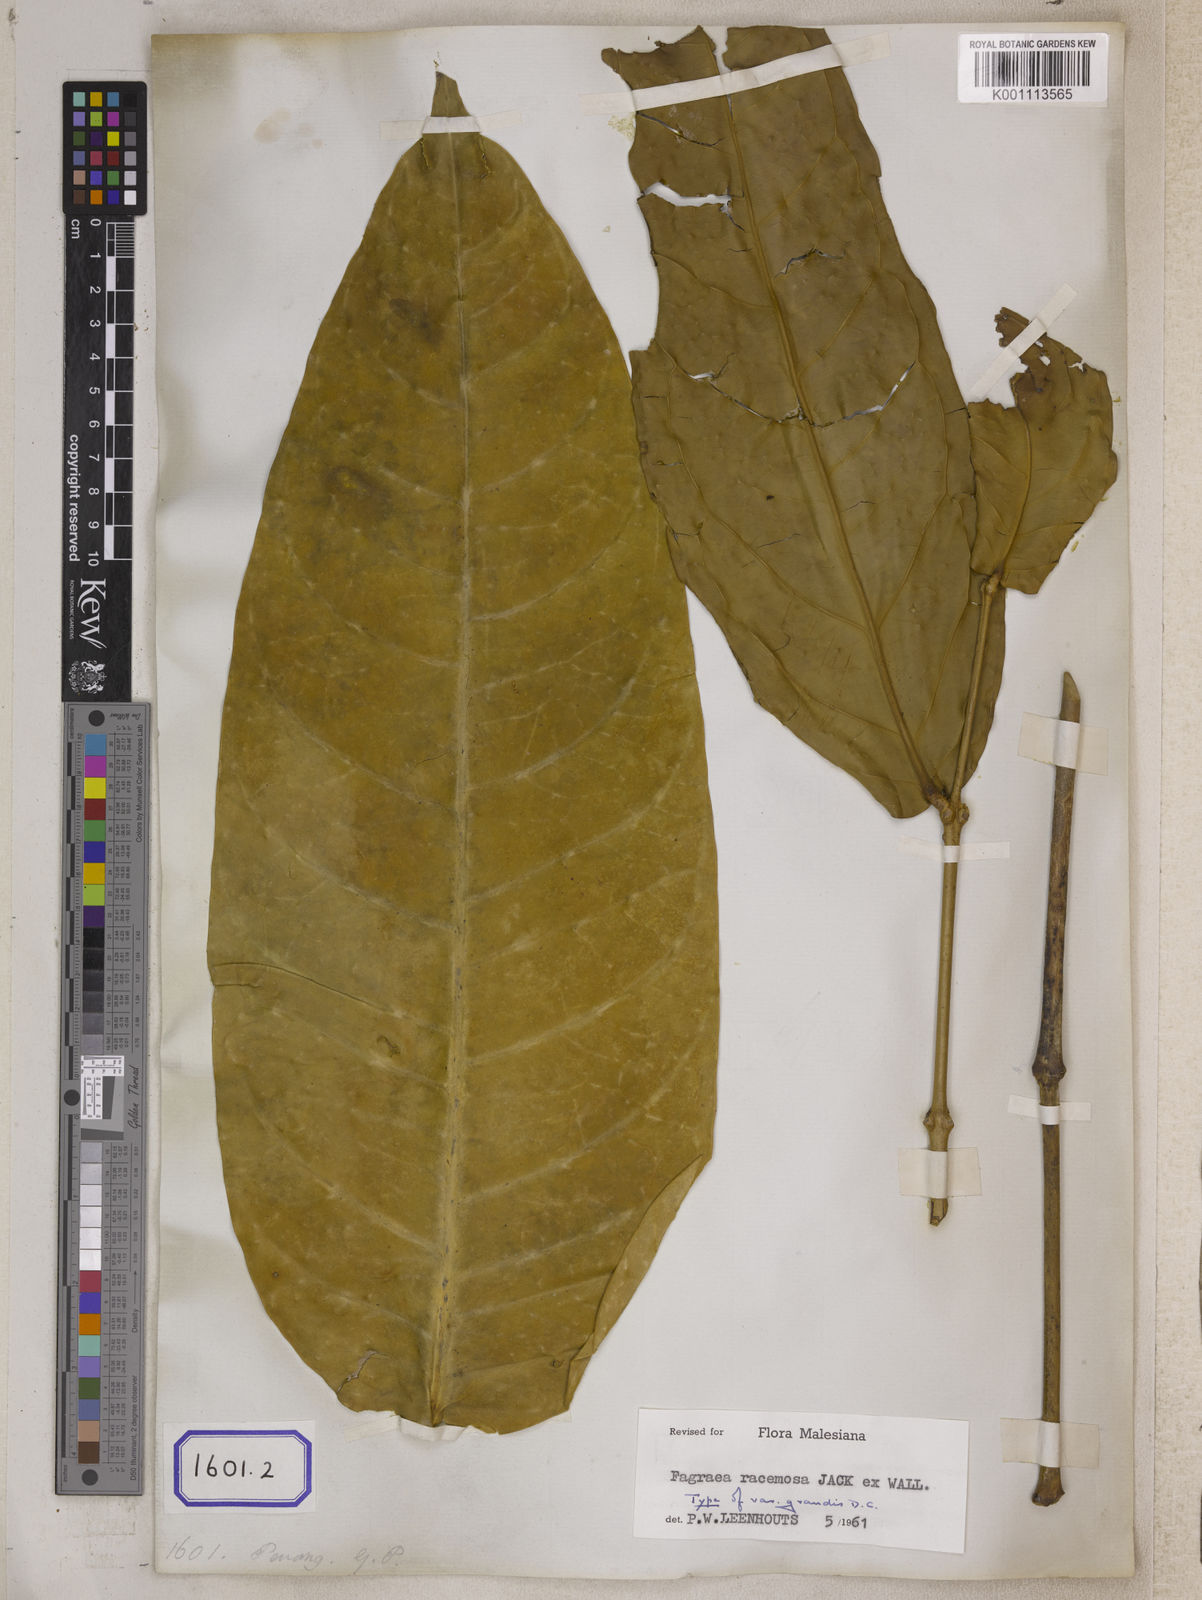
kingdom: Plantae
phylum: Tracheophyta
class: Magnoliopsida
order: Gentianales
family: Gentianaceae
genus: Utania
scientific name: Utania racemosa
